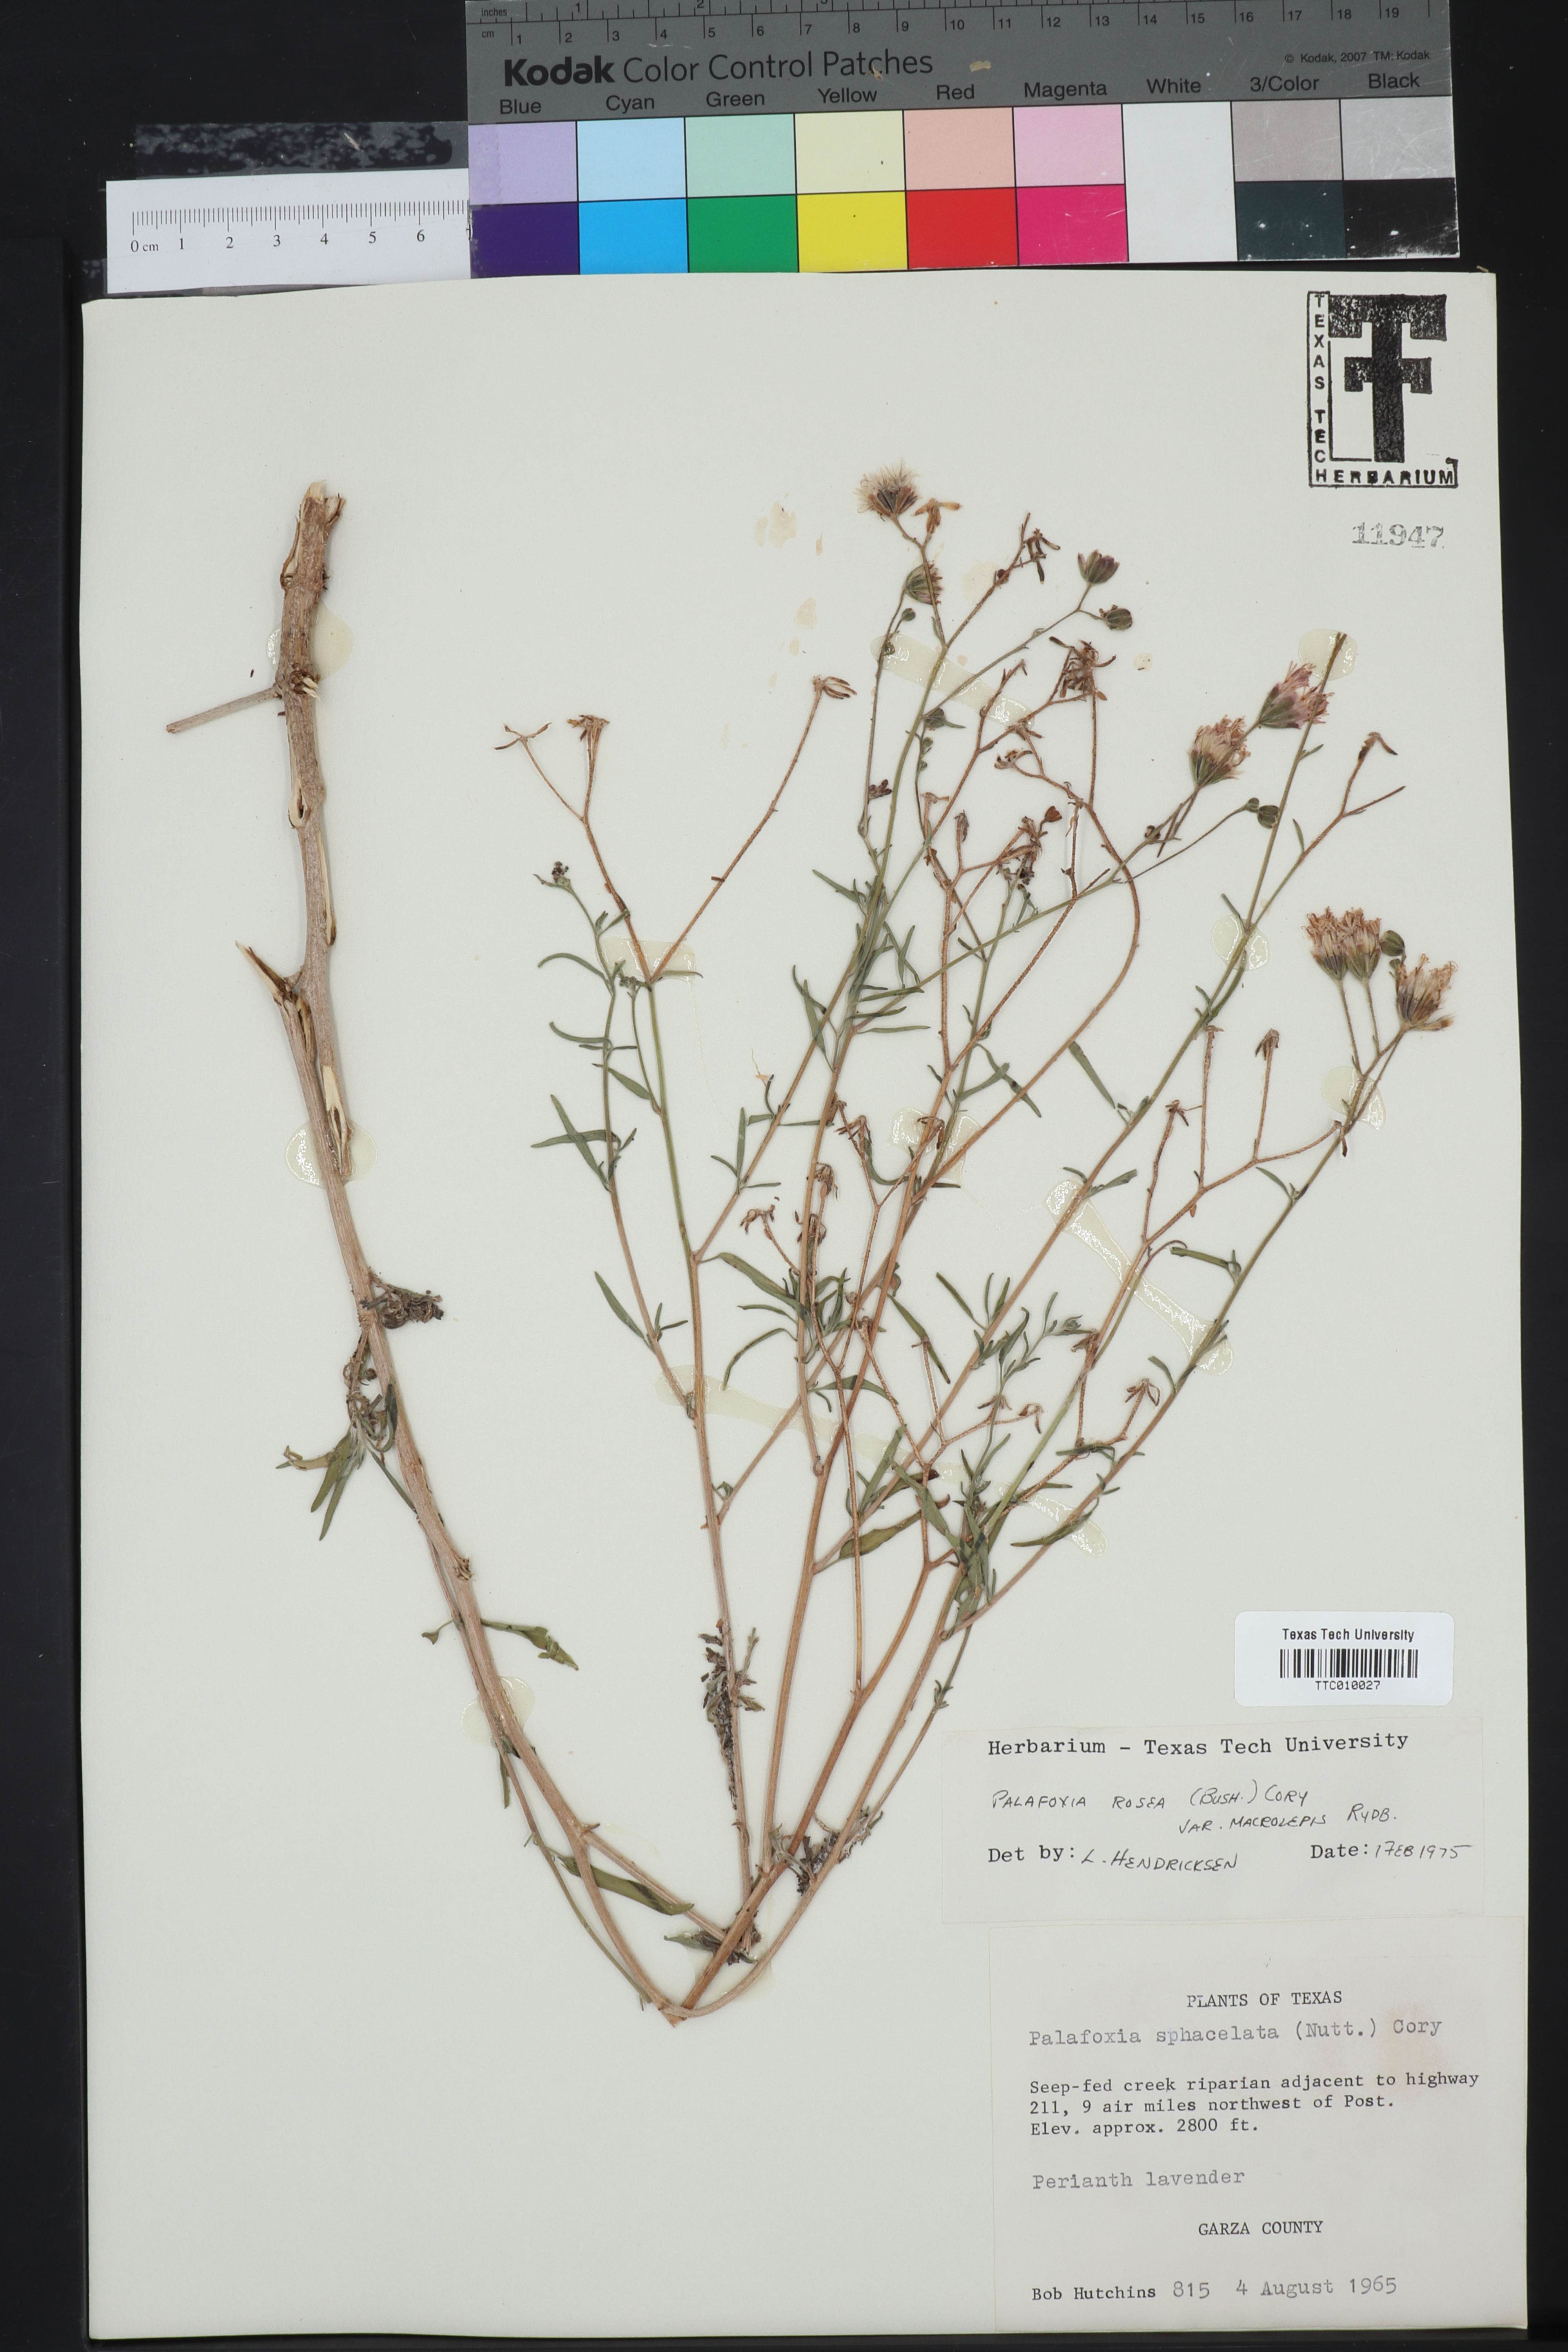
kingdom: Plantae
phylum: Tracheophyta
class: Magnoliopsida
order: Asterales
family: Asteraceae
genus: Palafoxia
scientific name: Palafoxia rosea
